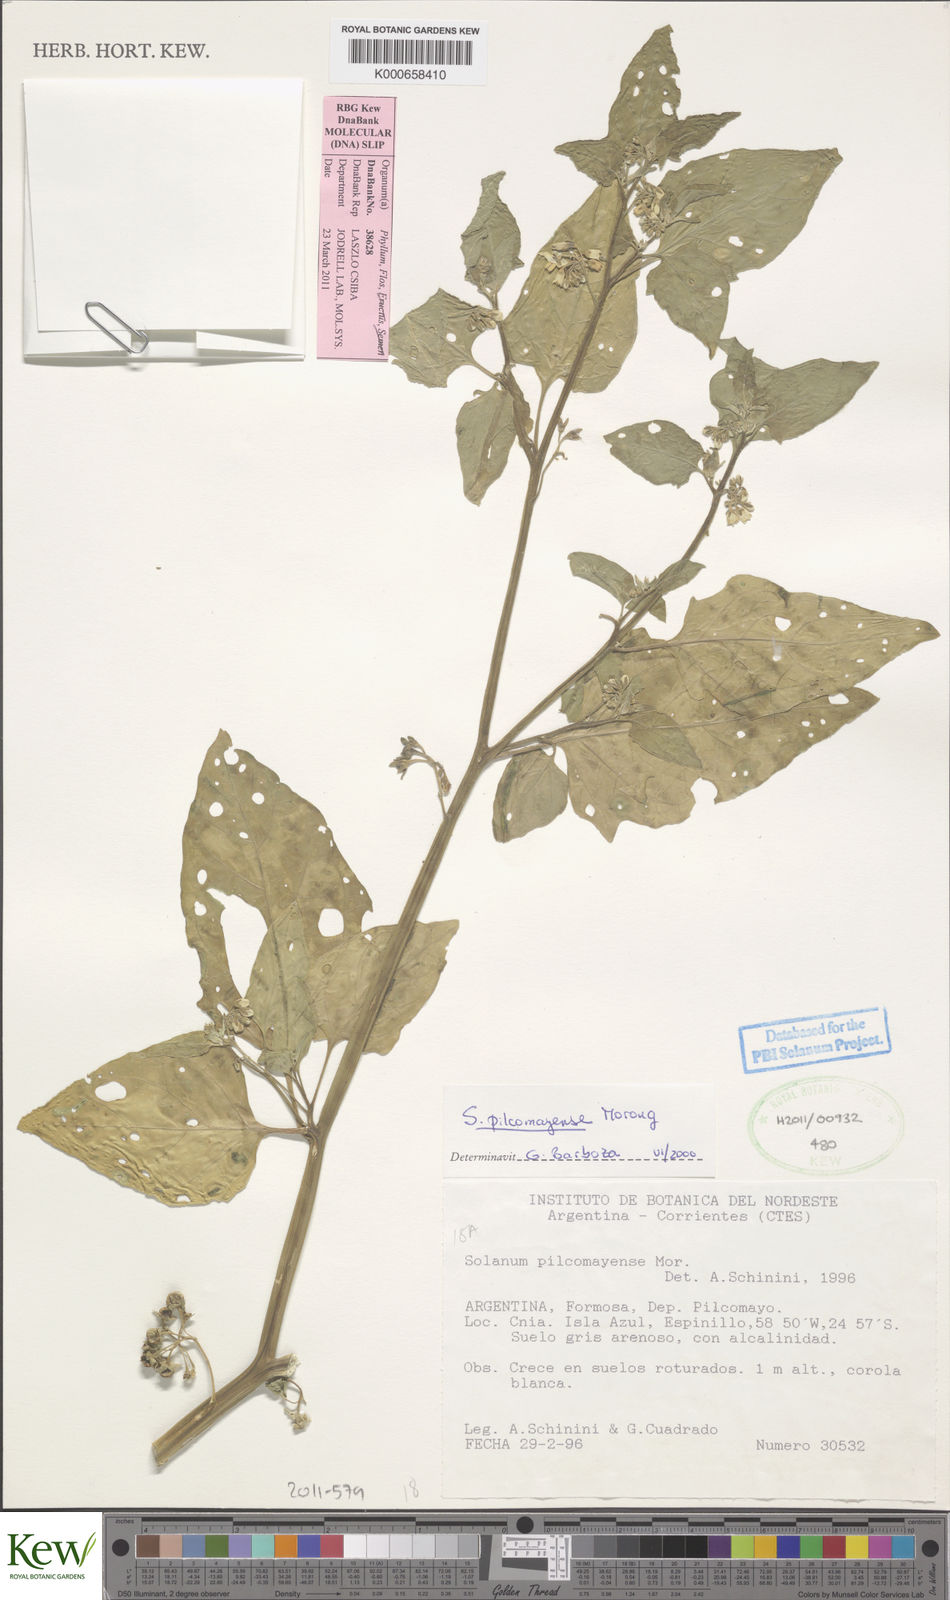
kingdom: Plantae
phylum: Tracheophyta
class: Magnoliopsida
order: Solanales
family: Solanaceae
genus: Solanum
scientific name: Solanum pilcomayense
